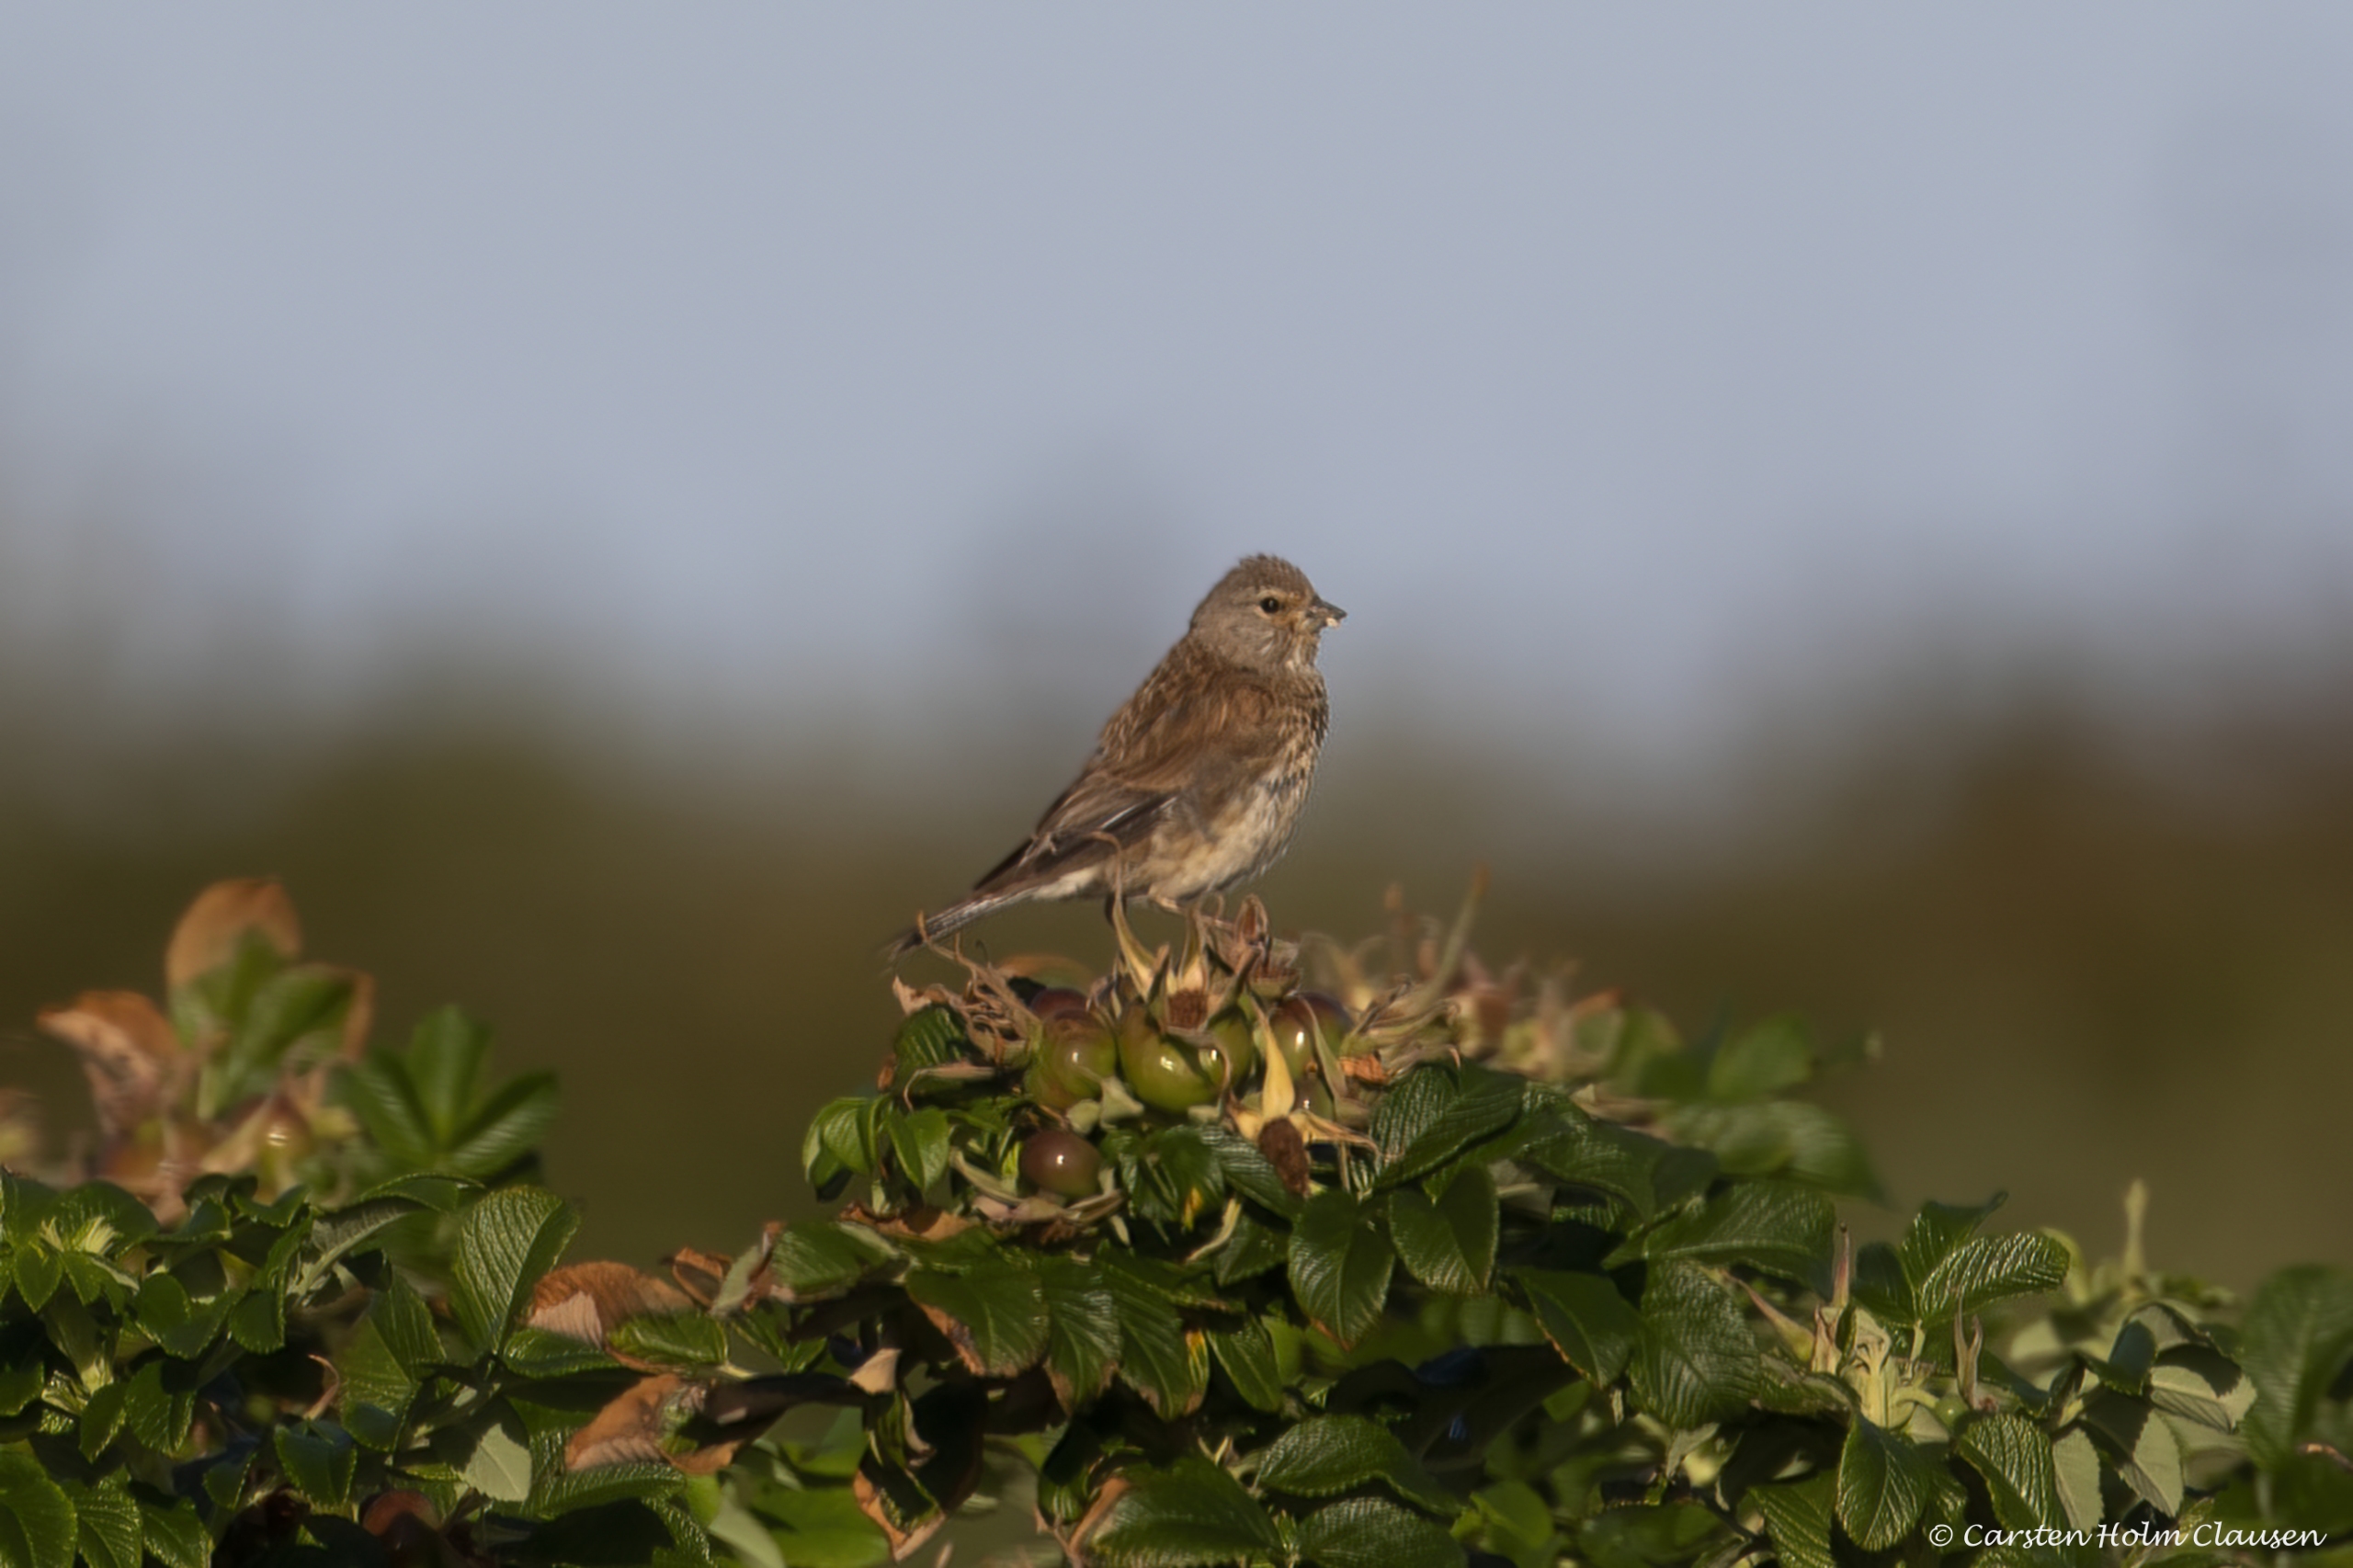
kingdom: Animalia
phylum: Chordata
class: Aves
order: Passeriformes
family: Fringillidae
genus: Linaria
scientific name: Linaria cannabina
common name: Tornirisk
